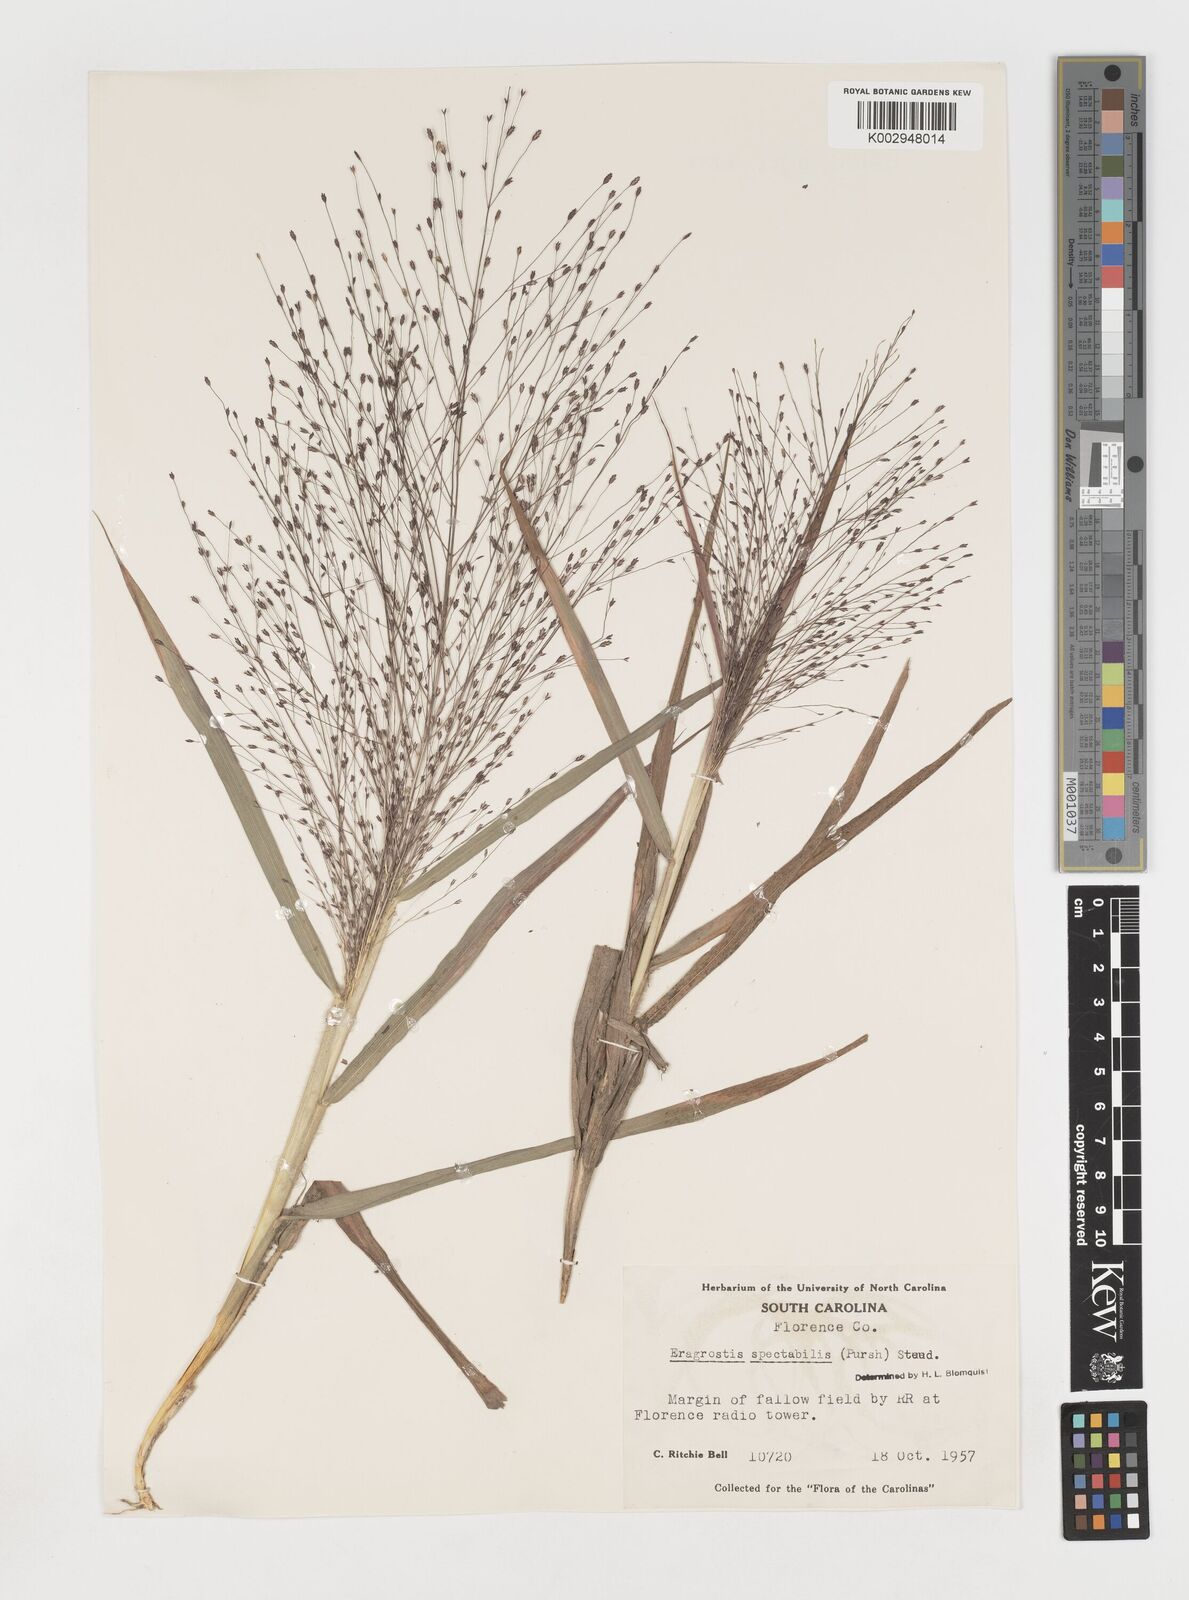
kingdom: Plantae
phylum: Tracheophyta
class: Liliopsida
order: Poales
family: Poaceae
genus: Eragrostis
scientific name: Eragrostis spectabilis
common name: Petticoat-climber
